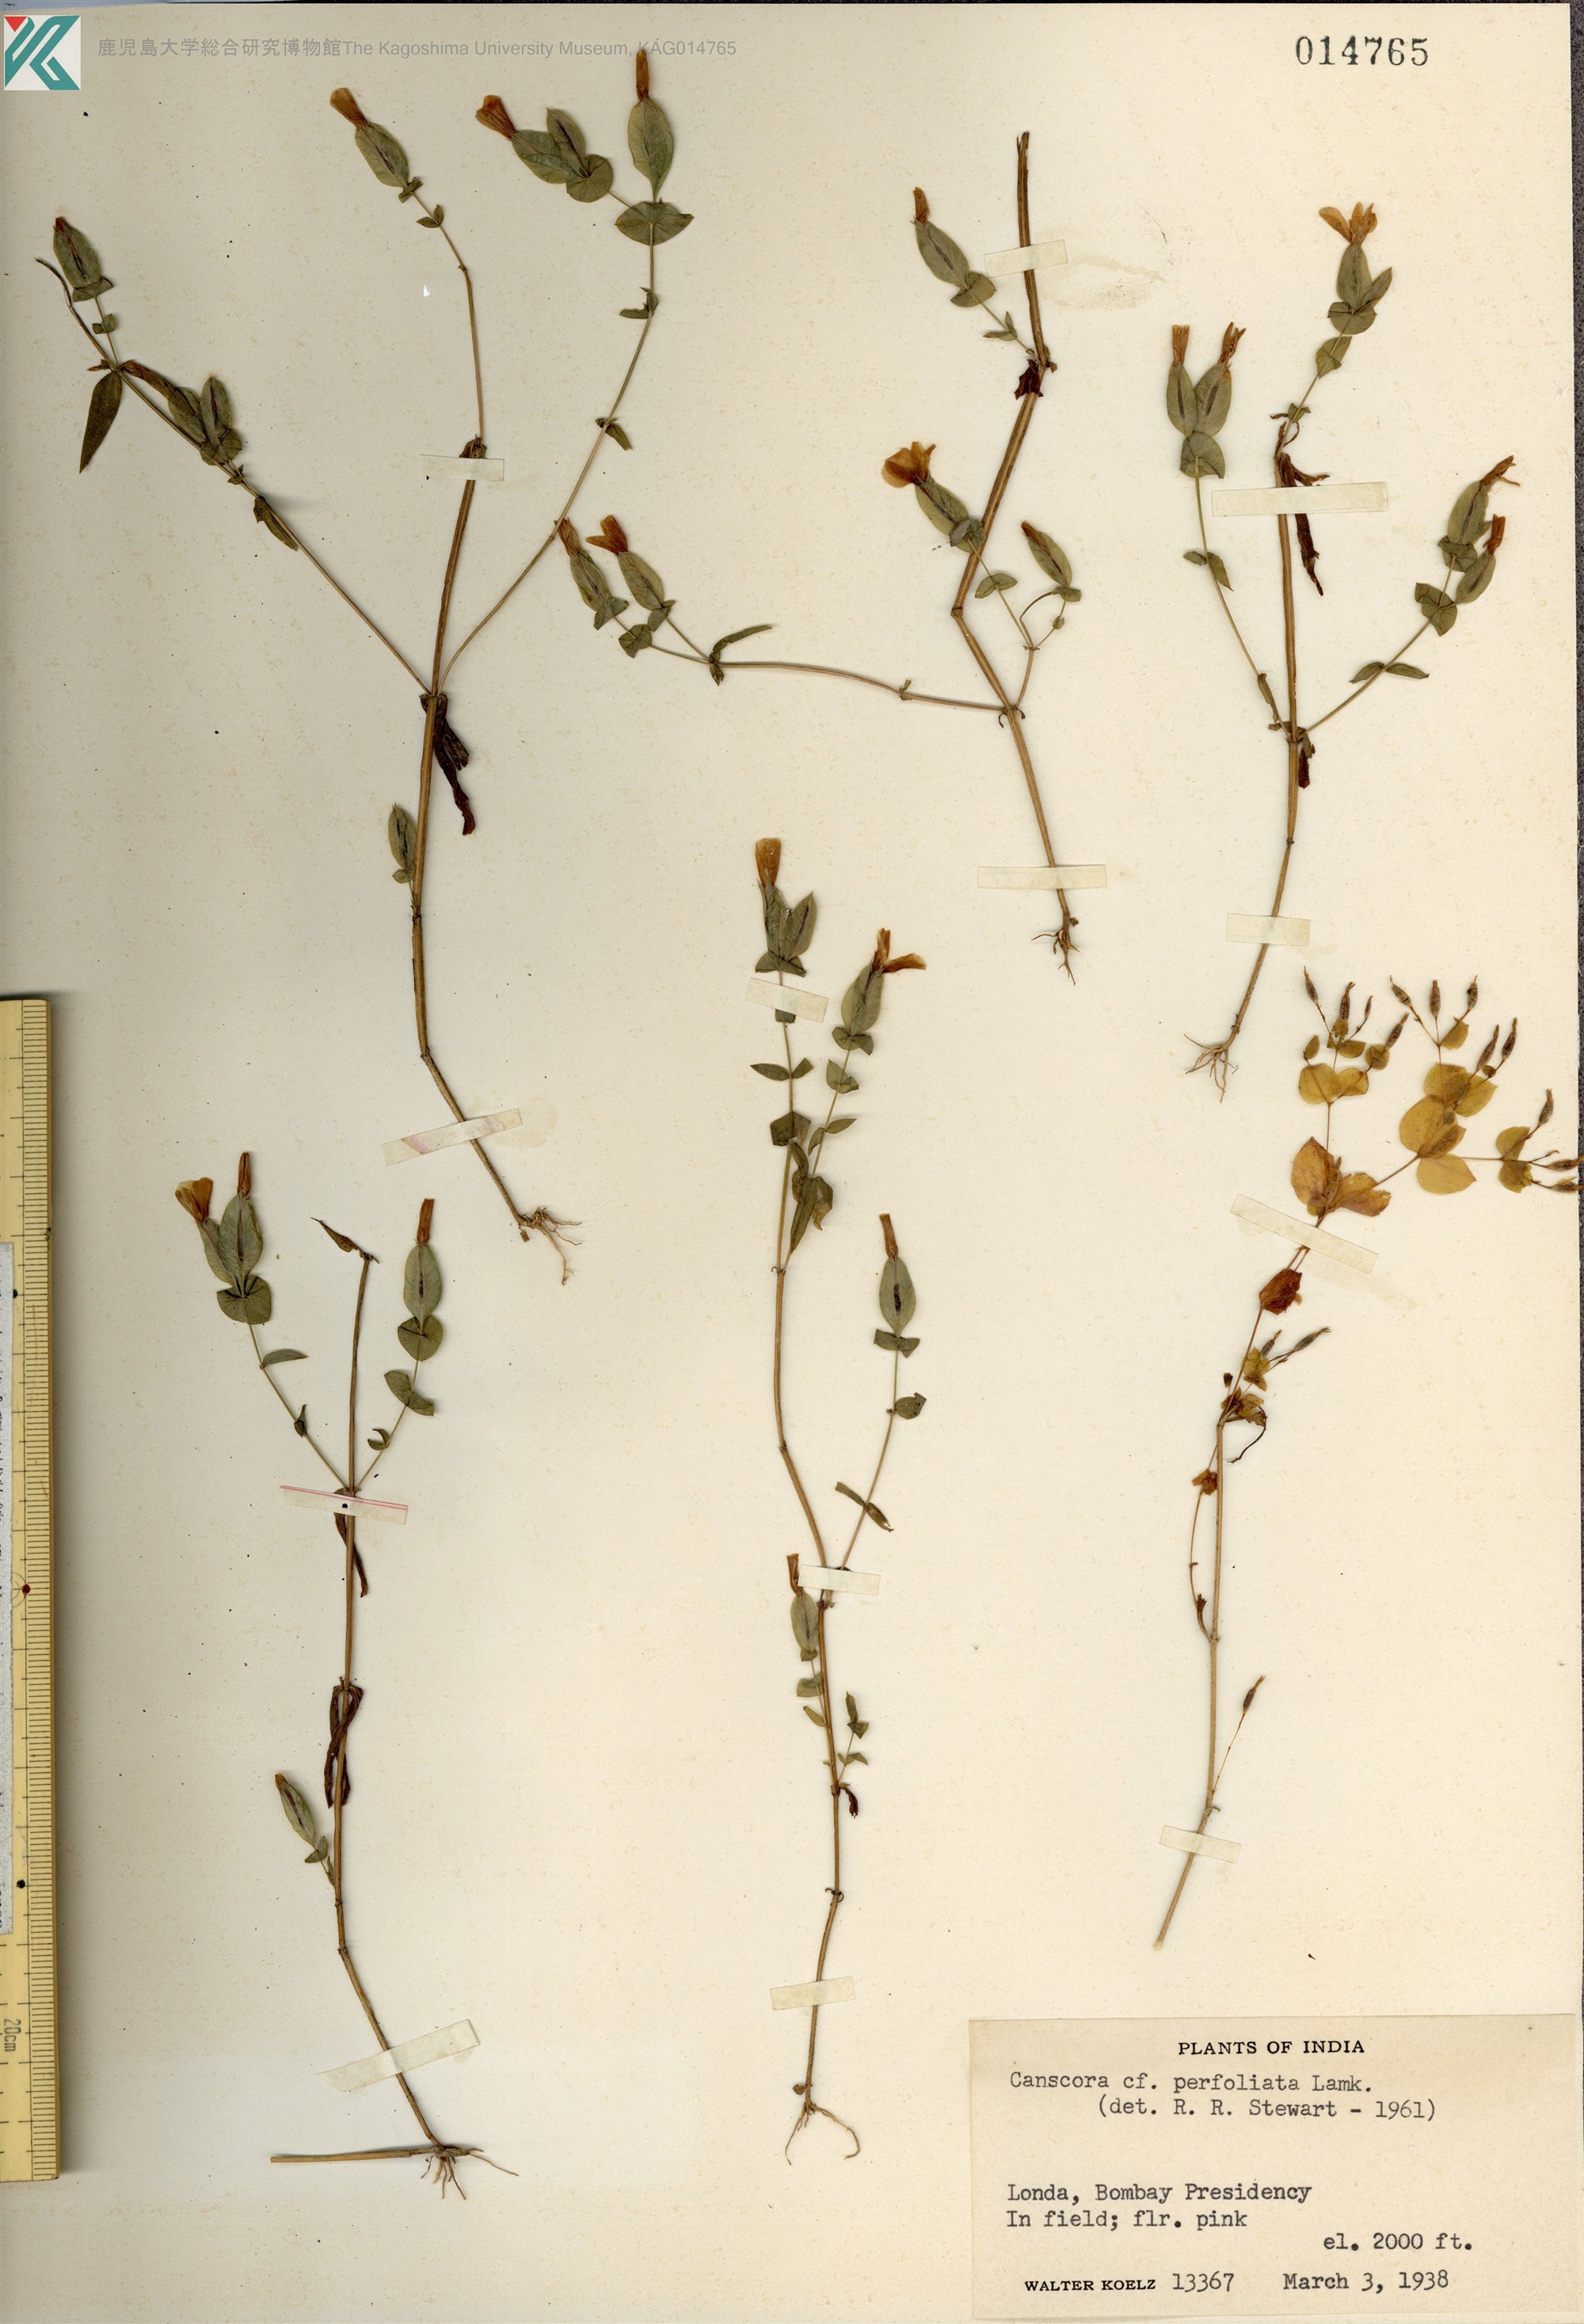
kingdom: Plantae
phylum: Tracheophyta
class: Magnoliopsida
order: Gentianales
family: Gentianaceae
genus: Canscora
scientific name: Canscora perfoliata
